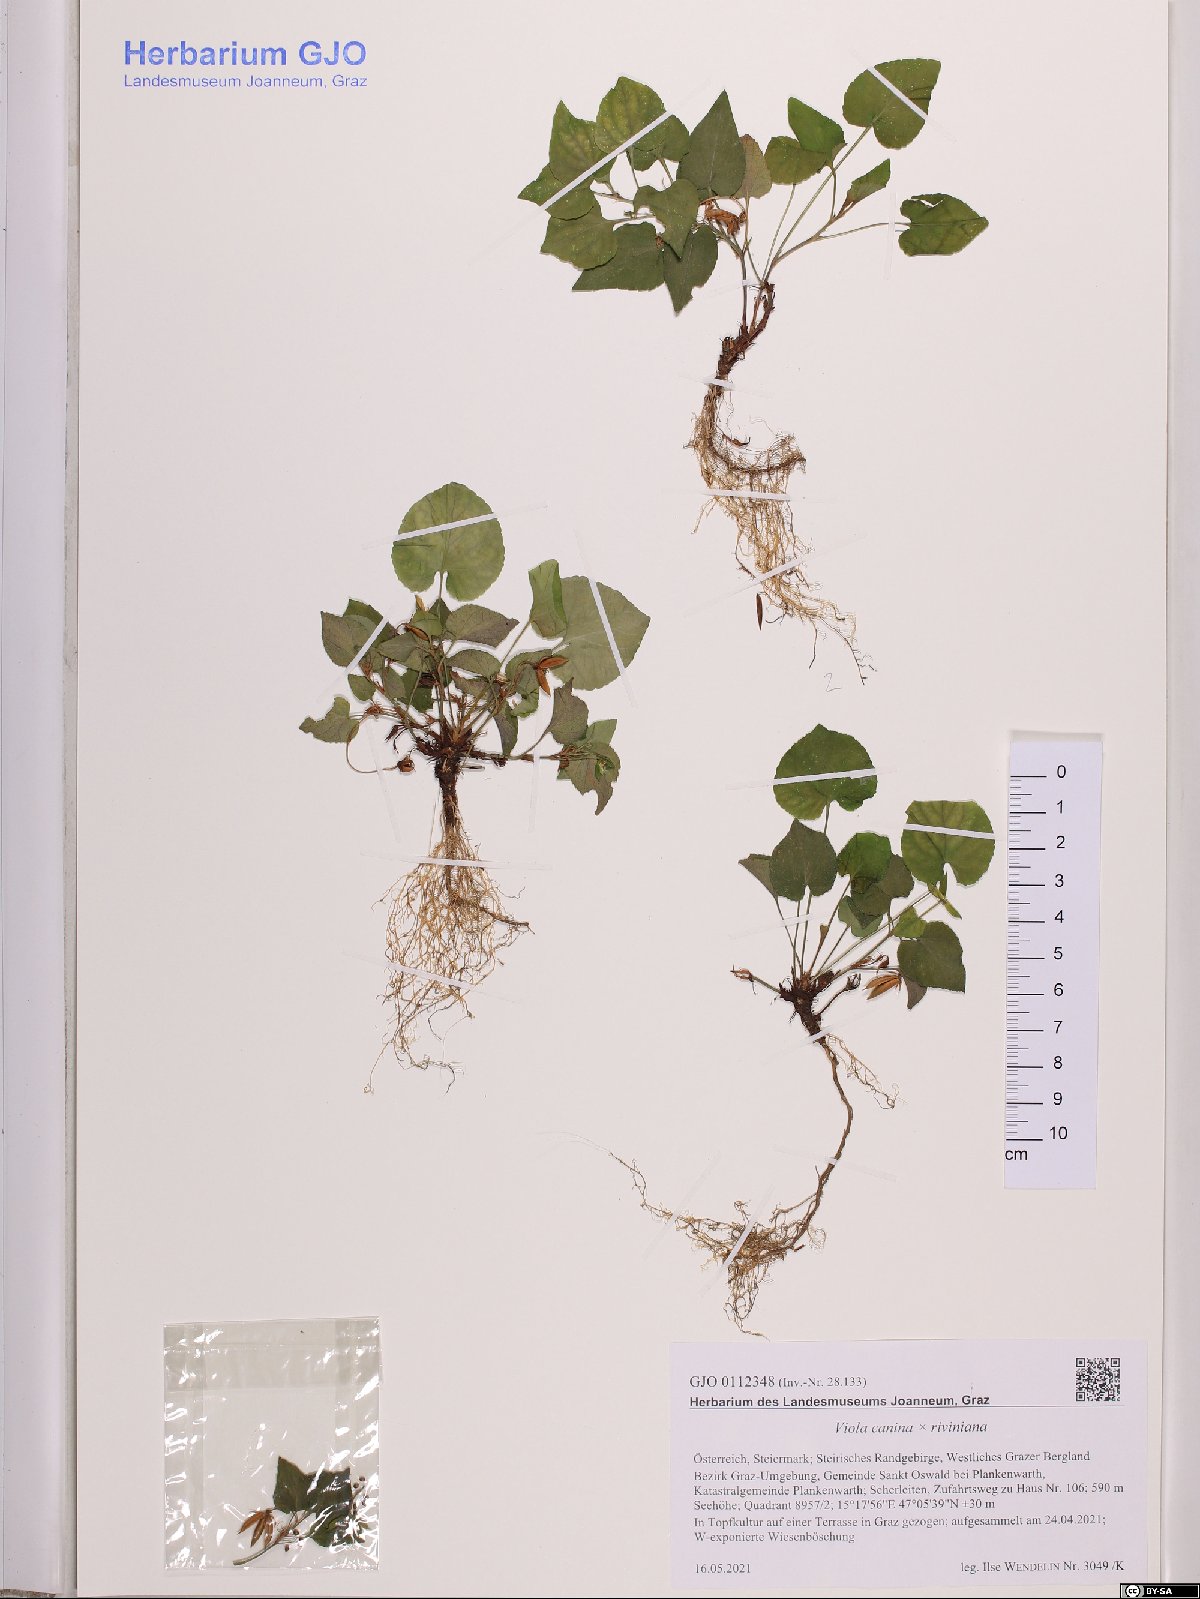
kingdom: Plantae
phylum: Tracheophyta
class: Magnoliopsida
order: Malpighiales
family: Violaceae
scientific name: Violaceae
